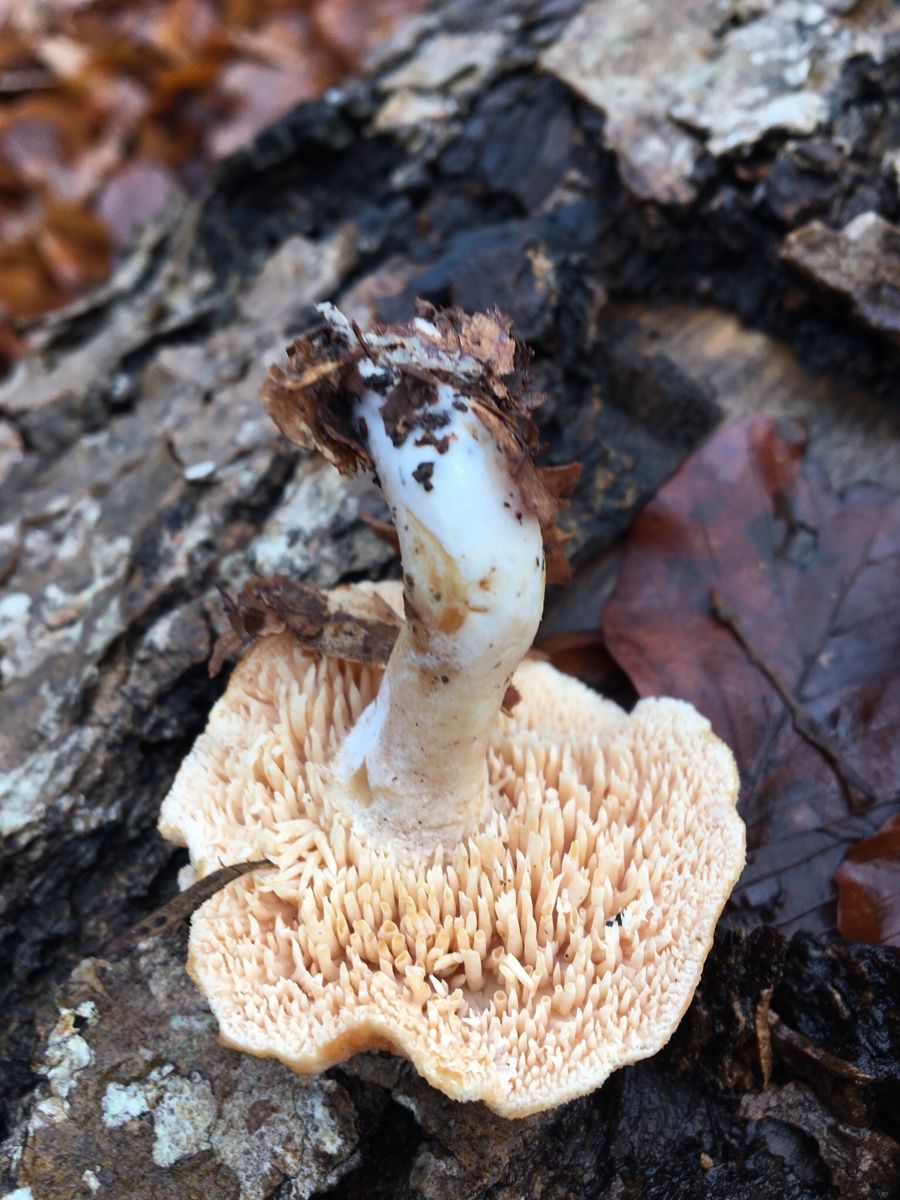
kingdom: Fungi
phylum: Basidiomycota
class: Agaricomycetes
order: Cantharellales
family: Hydnaceae
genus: Hydnum
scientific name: Hydnum ellipsosporum
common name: tandet pigsvamp
